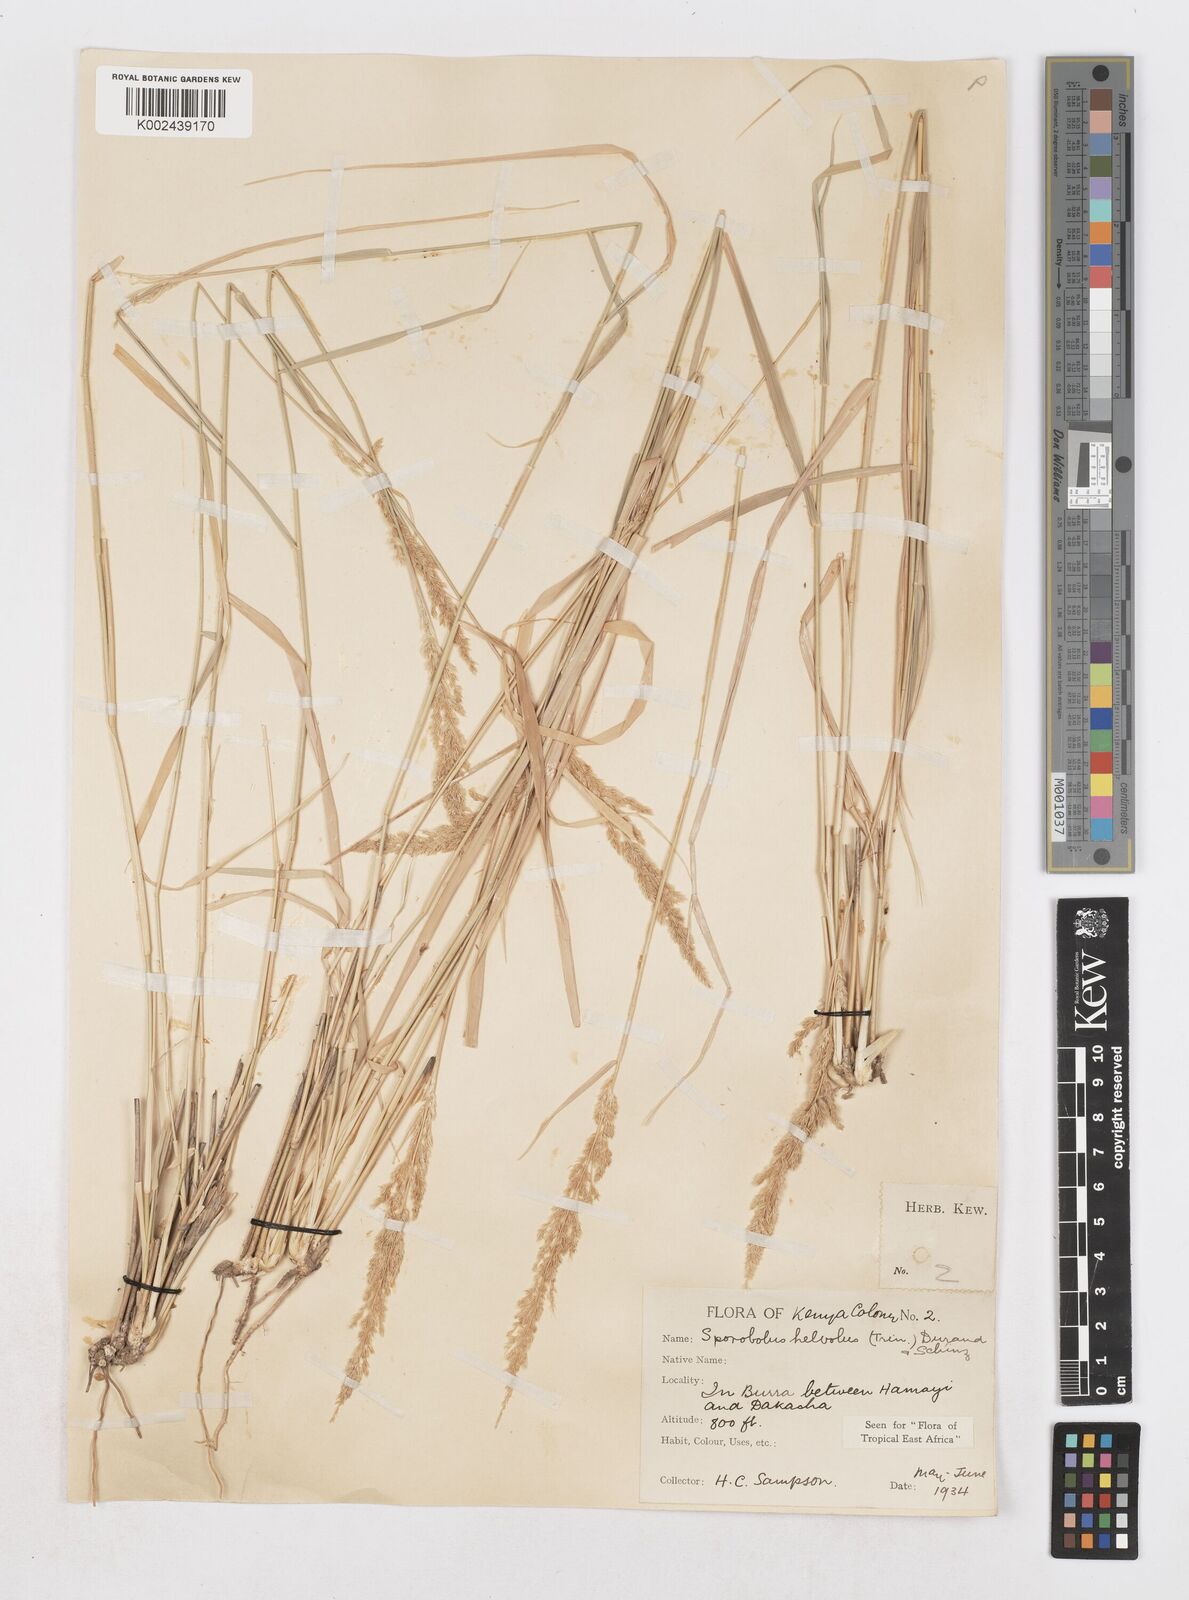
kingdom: Plantae
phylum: Tracheophyta
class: Liliopsida
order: Poales
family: Poaceae
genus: Sporobolus
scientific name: Sporobolus helvolus
